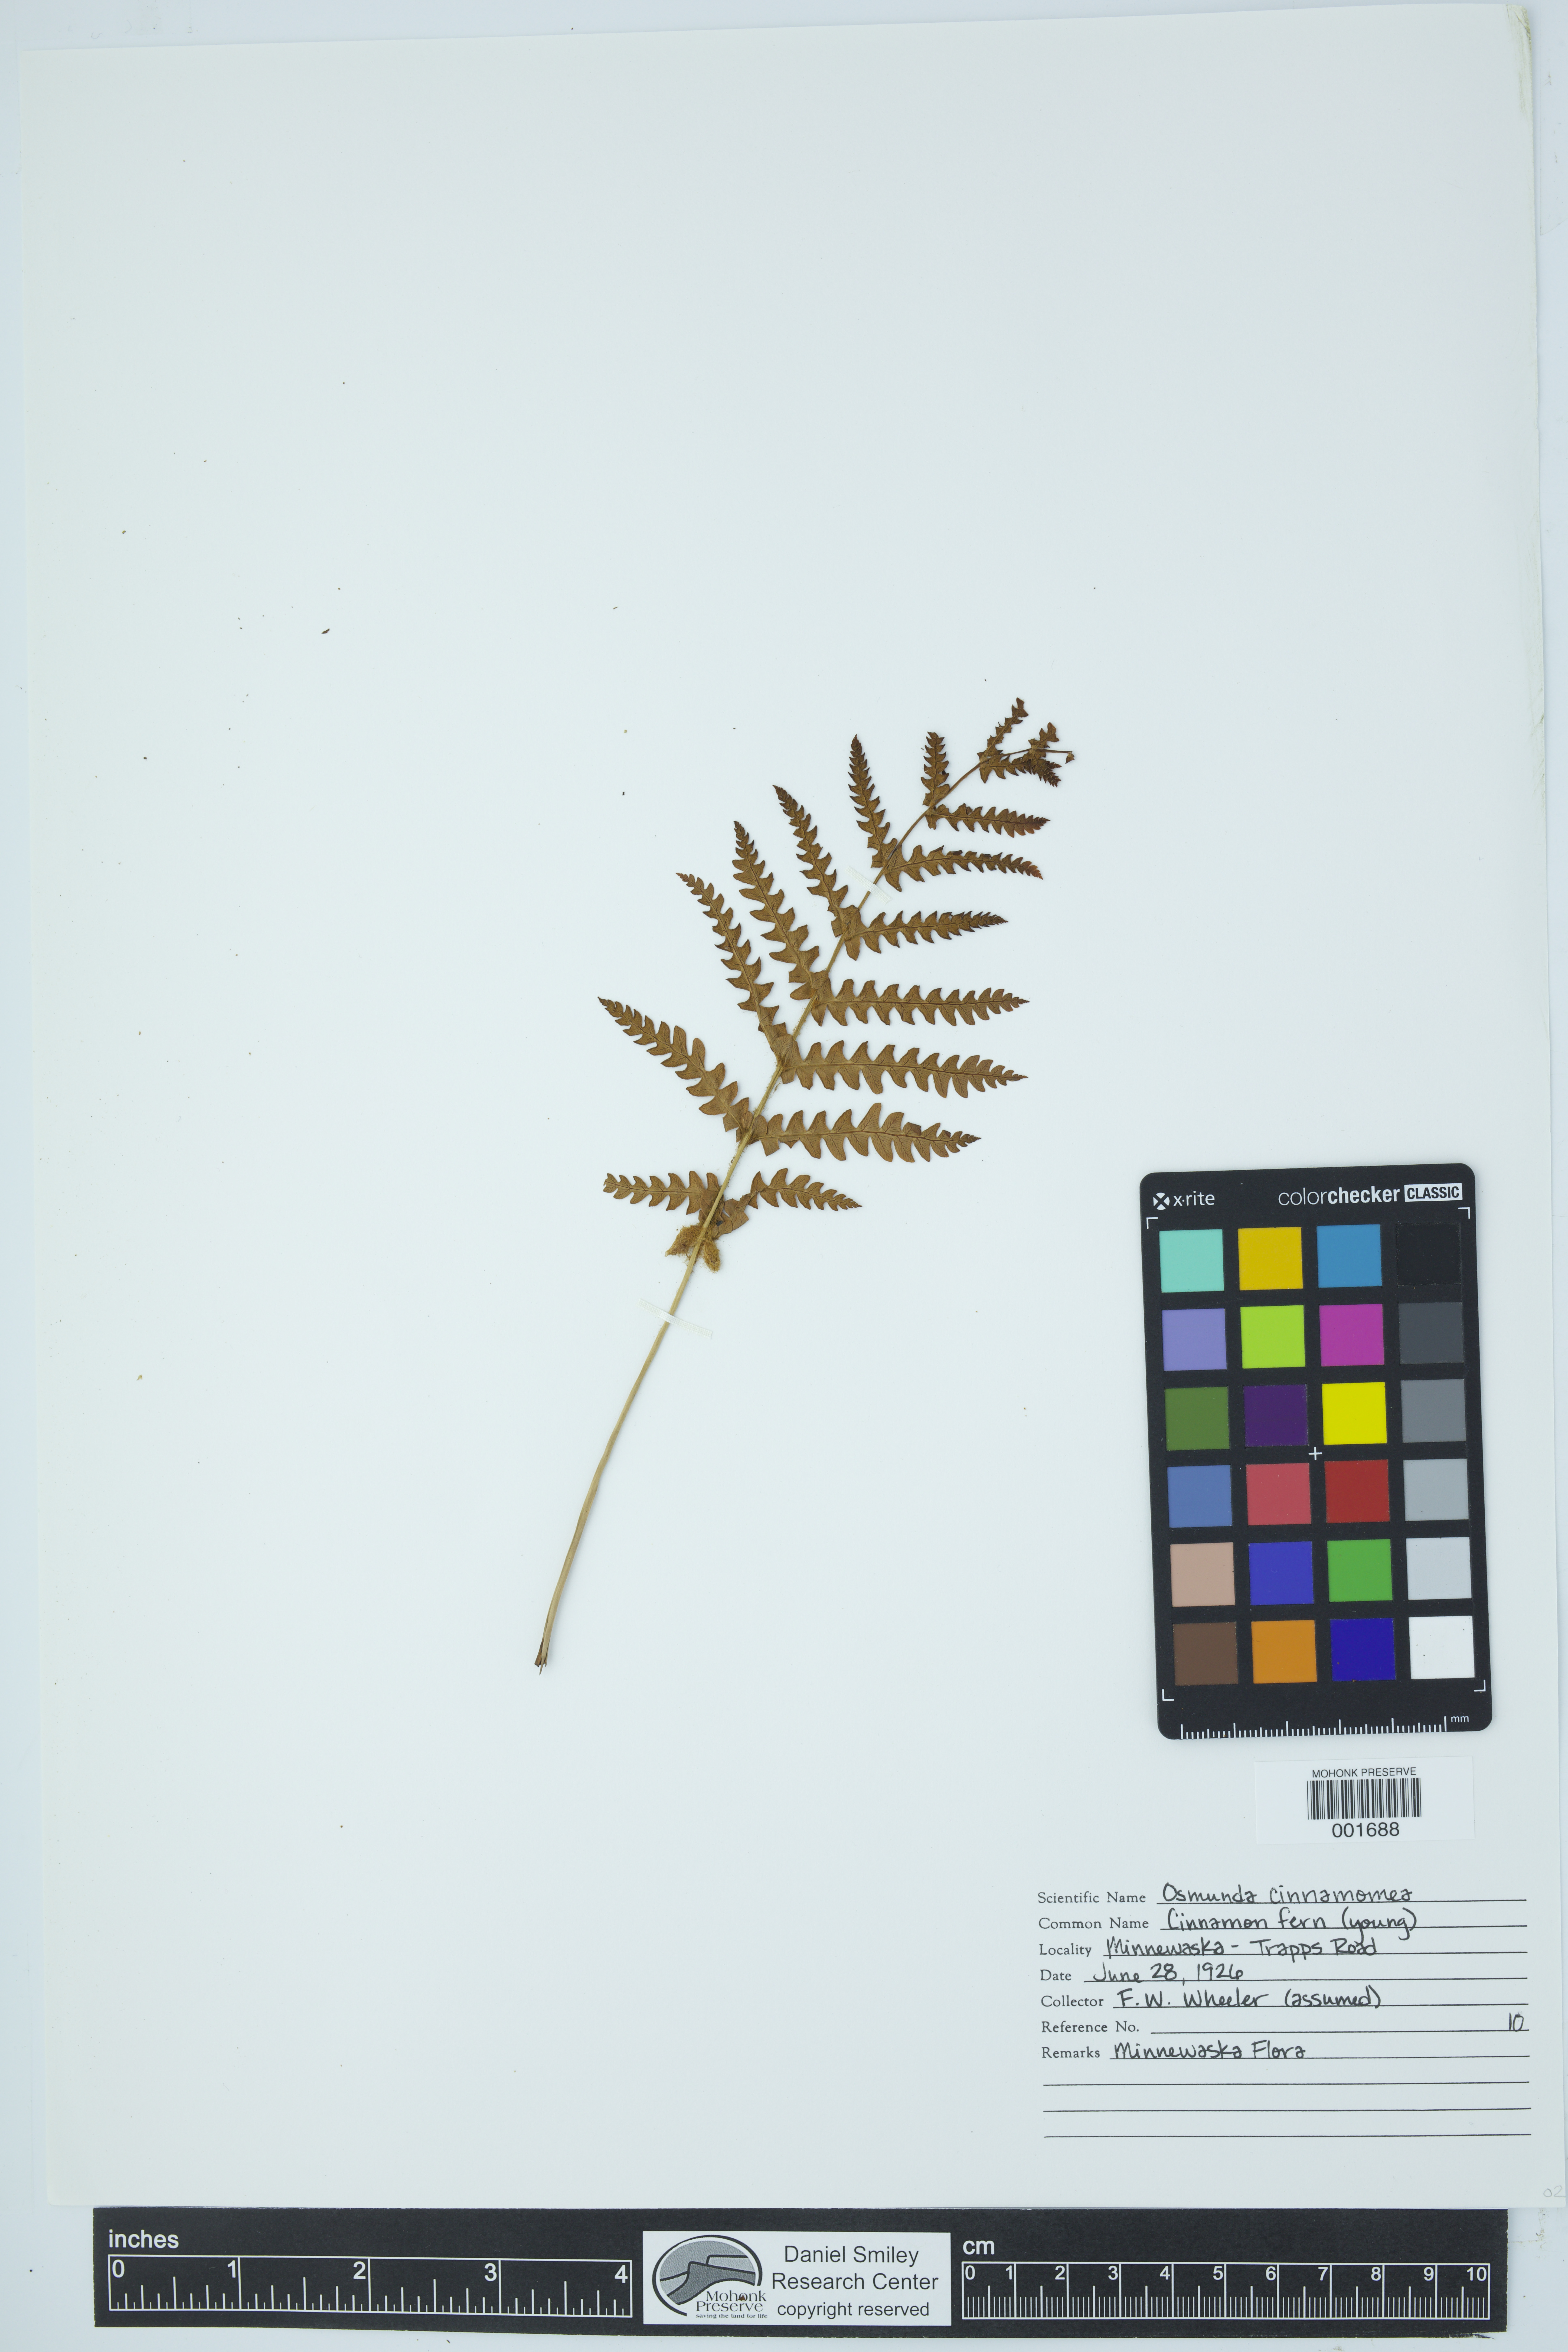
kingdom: Plantae
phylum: Tracheophyta
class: Polypodiopsida
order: Osmundales
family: Osmundaceae
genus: Osmundastrum
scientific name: Osmundastrum cinnamomeum
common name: Cinnamon fern
